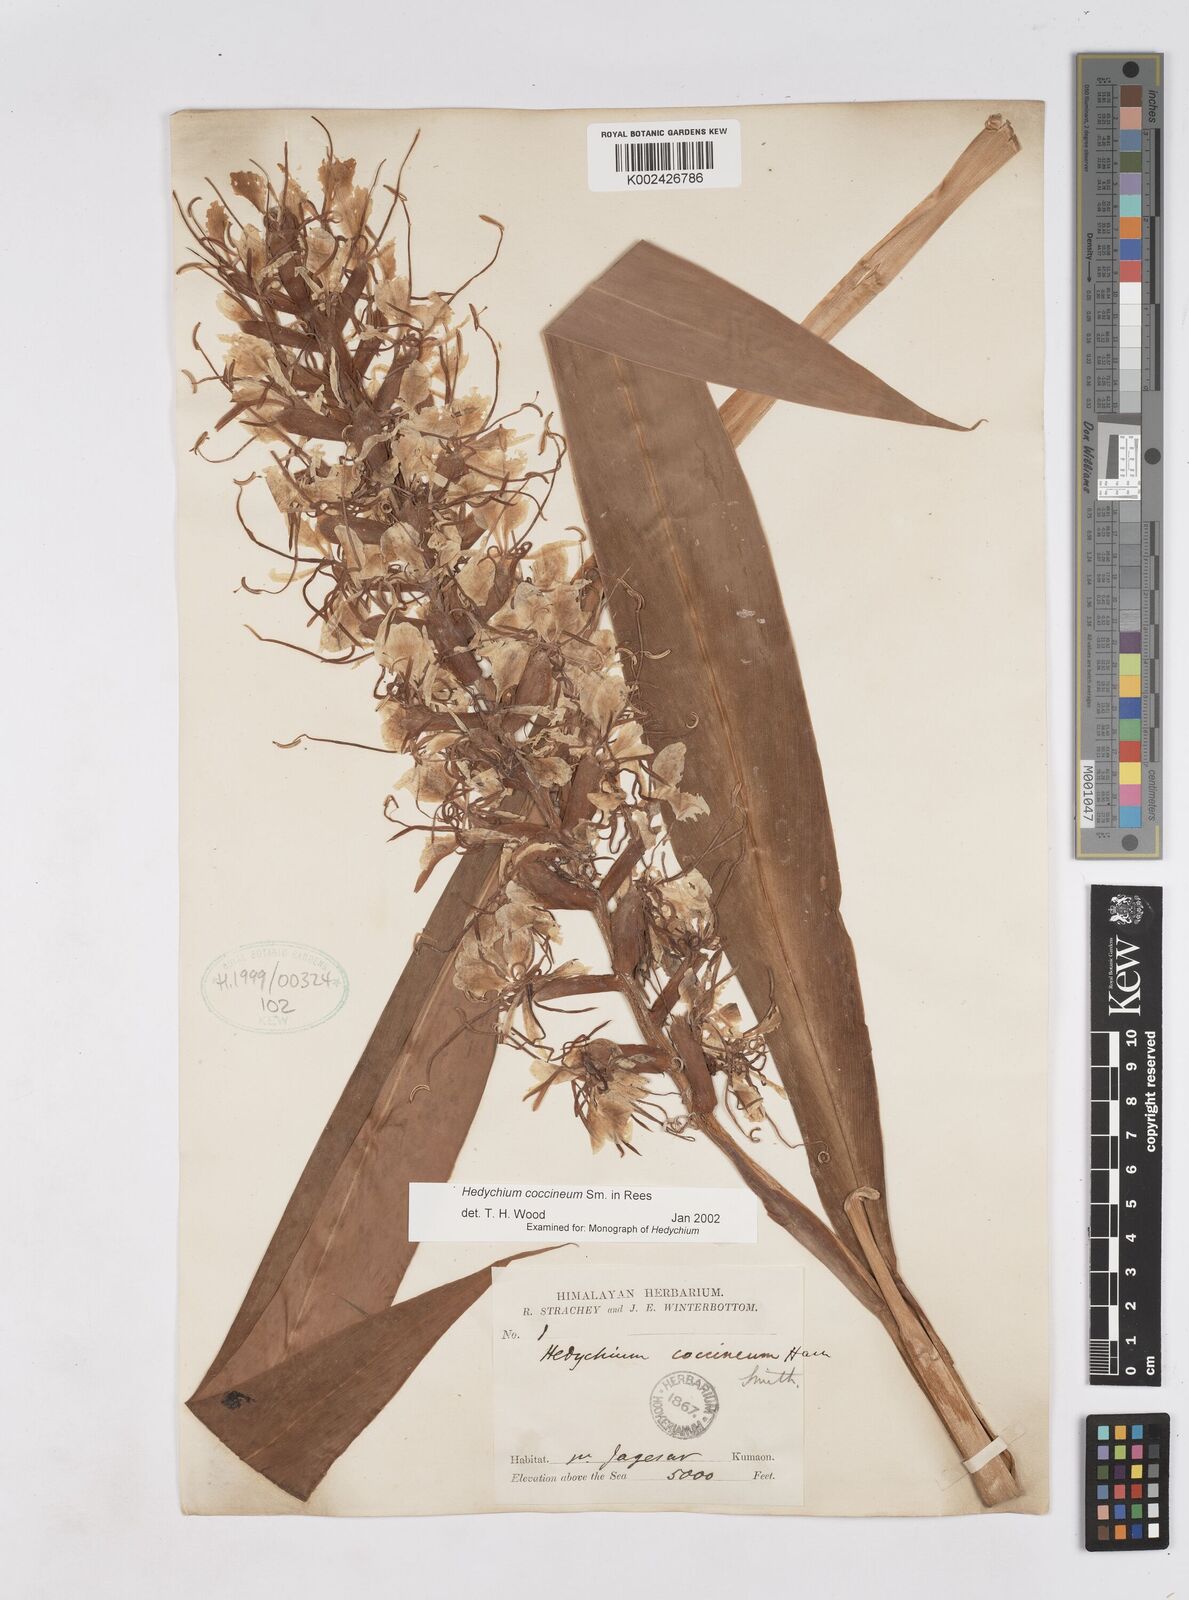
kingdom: Plantae
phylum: Tracheophyta
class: Liliopsida
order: Zingiberales
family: Zingiberaceae
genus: Hedychium
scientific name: Hedychium coccineum
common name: Red ginger-lily
